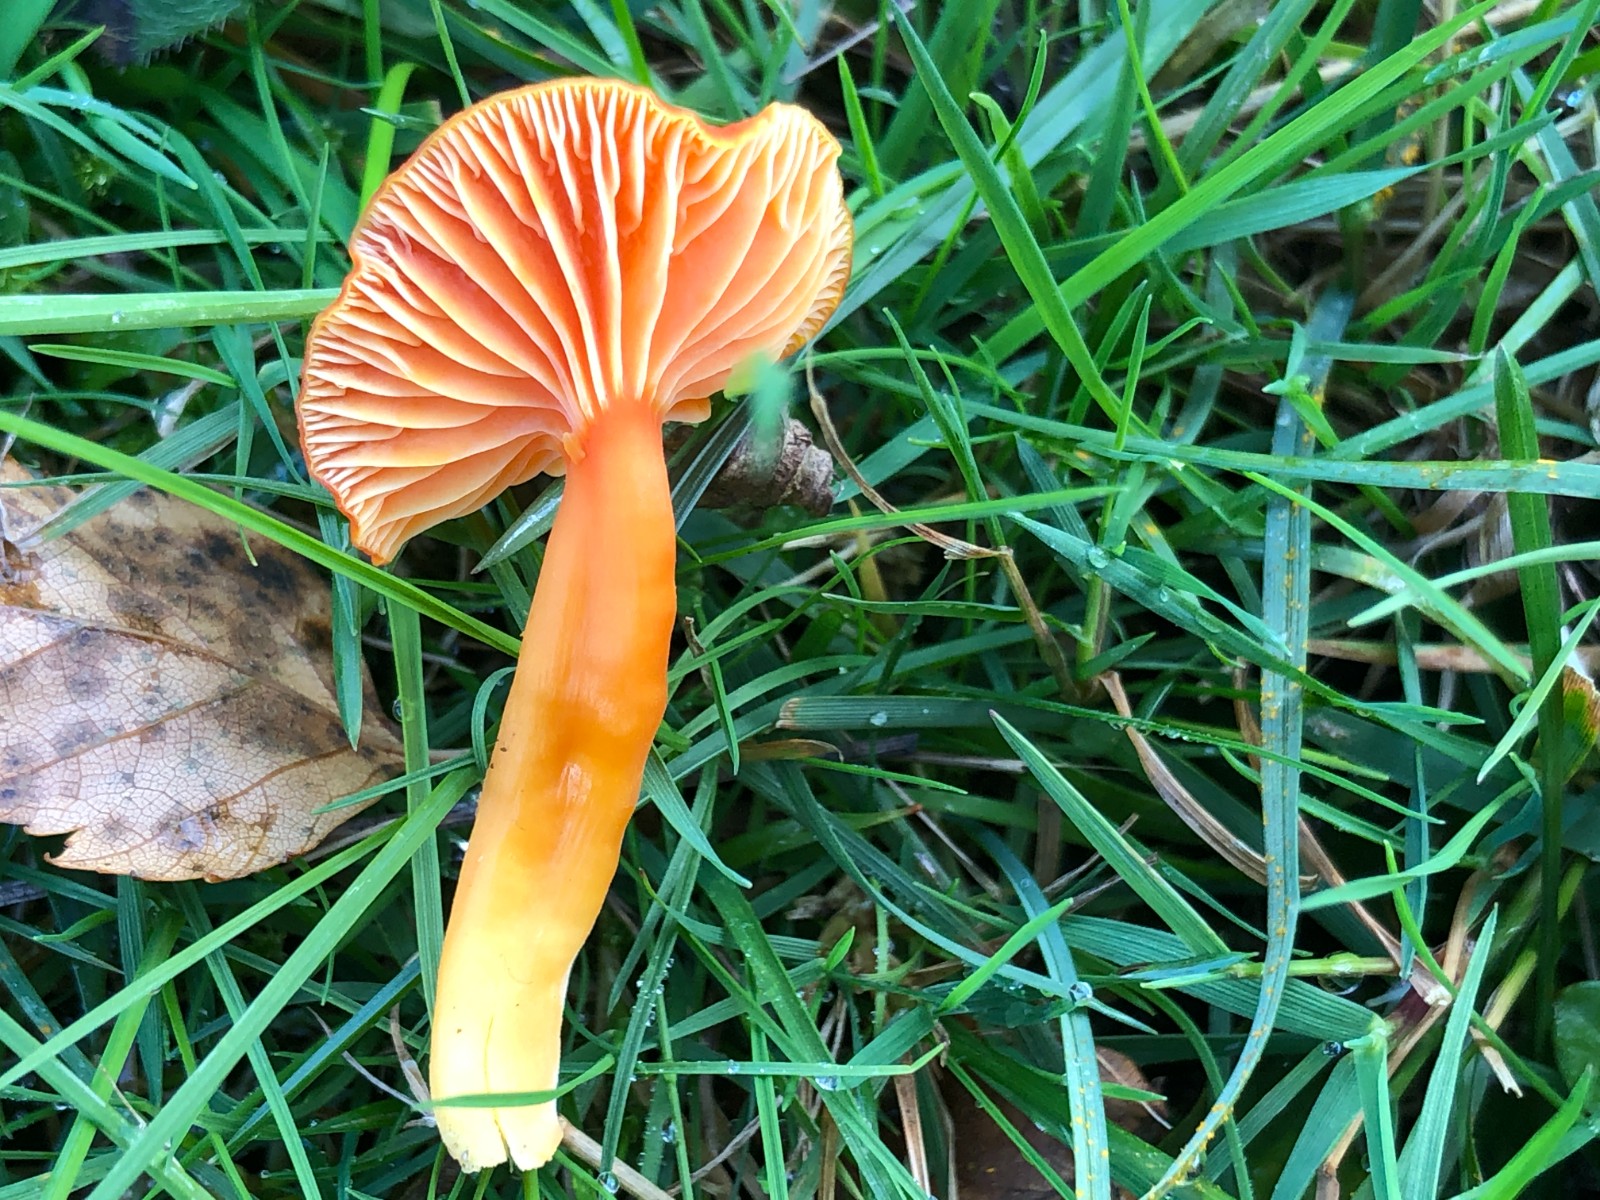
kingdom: Fungi
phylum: Basidiomycota
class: Agaricomycetes
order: Agaricales
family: Hygrophoraceae
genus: Hygrocybe
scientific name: Hygrocybe reidii
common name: honning-vokshat
